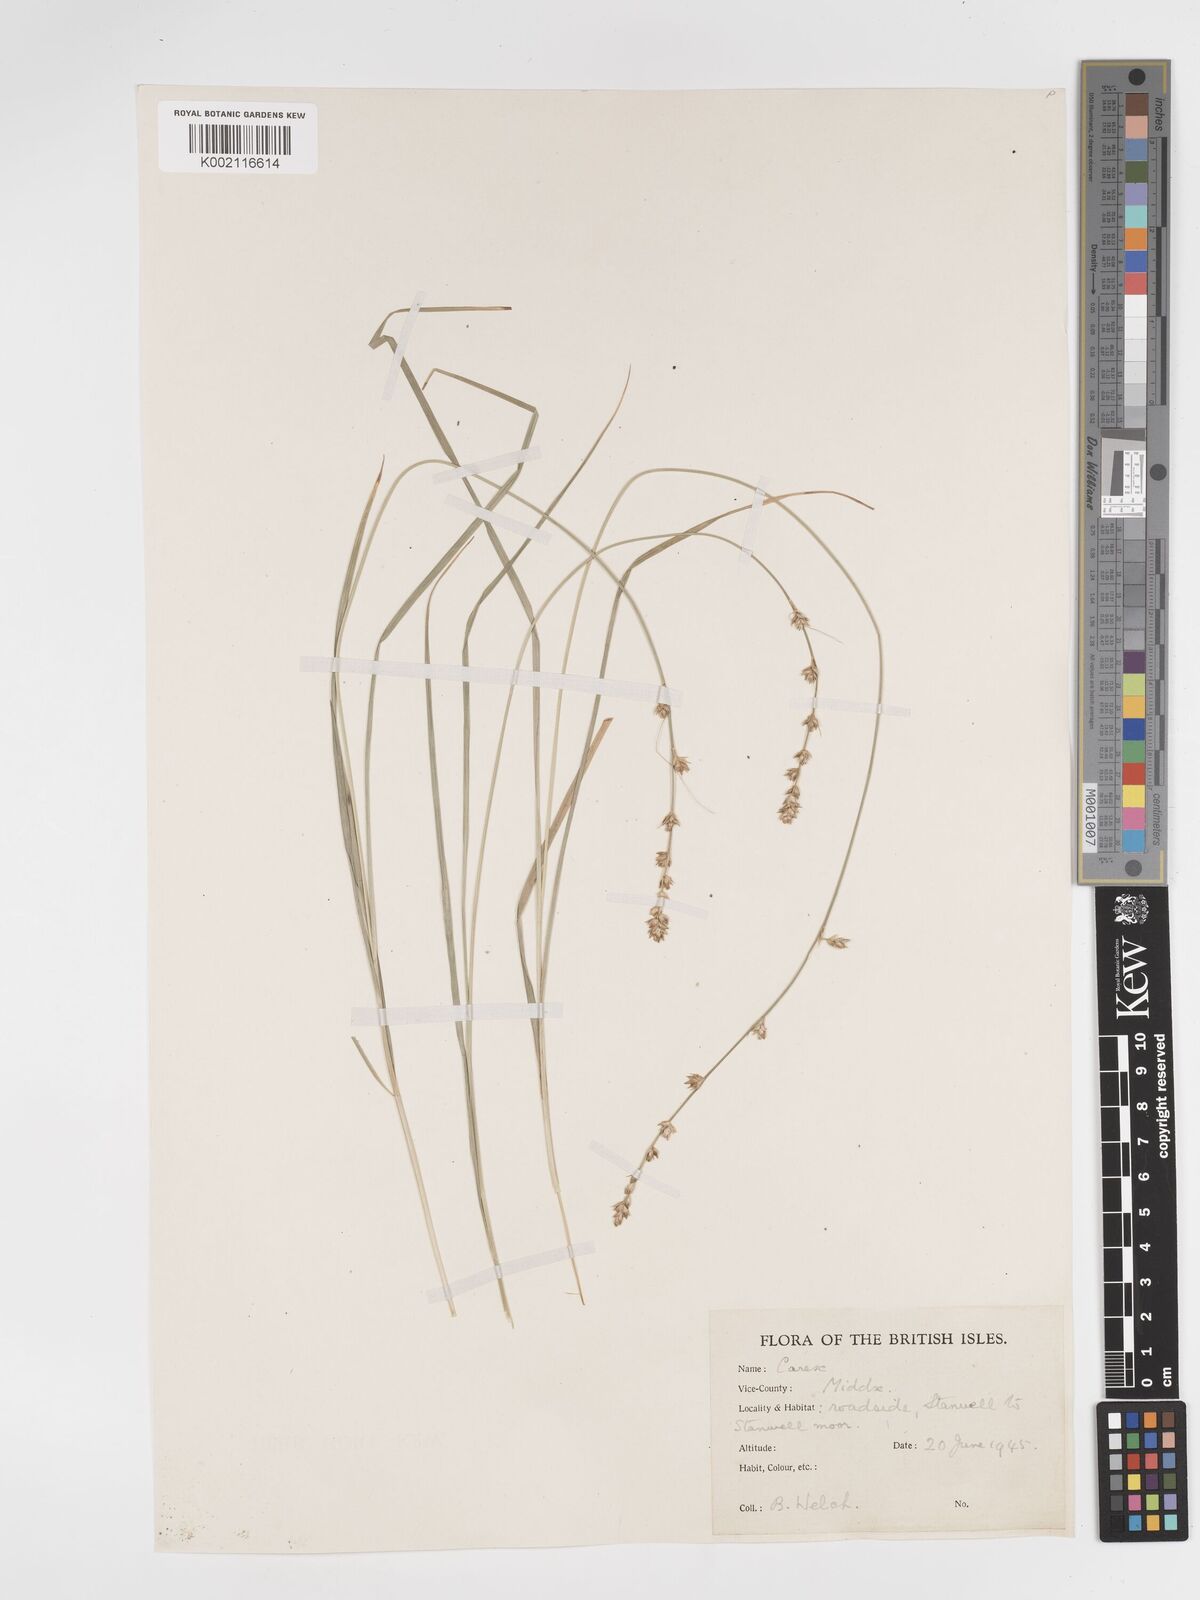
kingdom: Plantae
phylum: Tracheophyta
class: Liliopsida
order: Poales
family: Cyperaceae
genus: Carex
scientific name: Carex divulsa
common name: Grassland sedge
